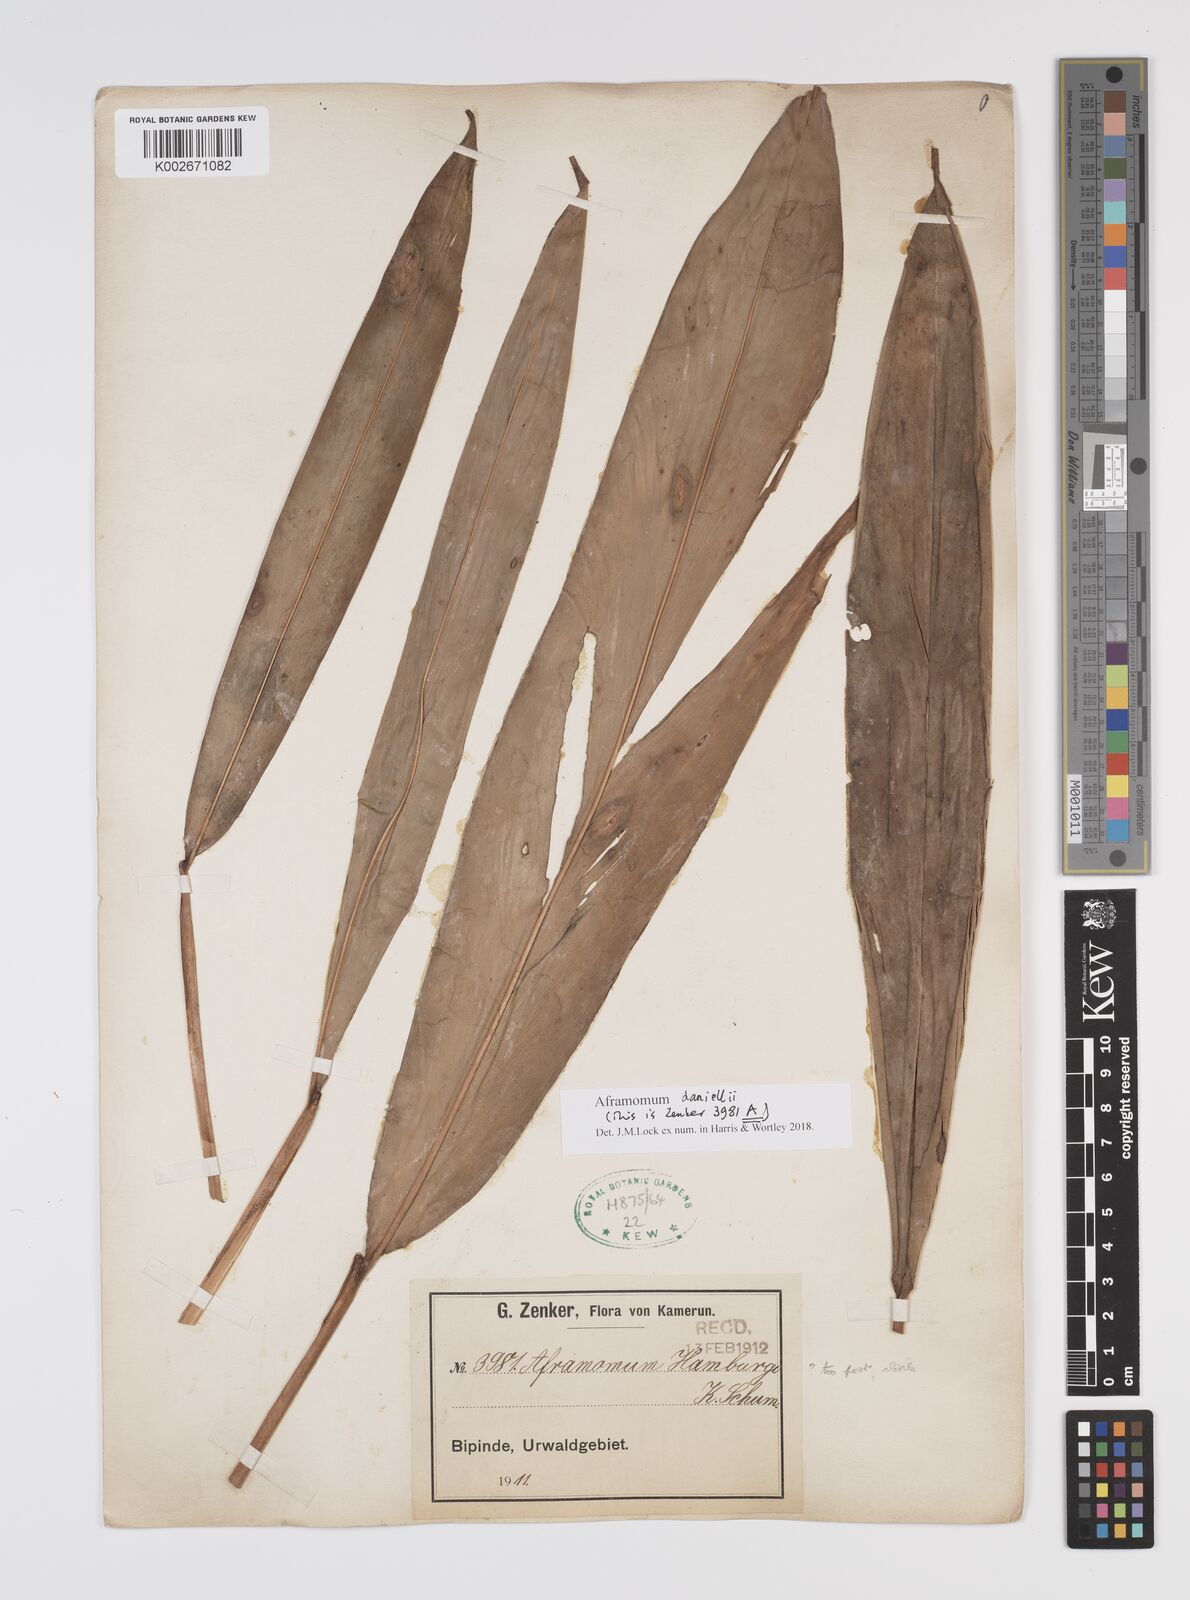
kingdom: Plantae
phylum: Tracheophyta
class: Liliopsida
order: Zingiberales
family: Zingiberaceae
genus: Aframomum
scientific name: Aframomum daniellii
